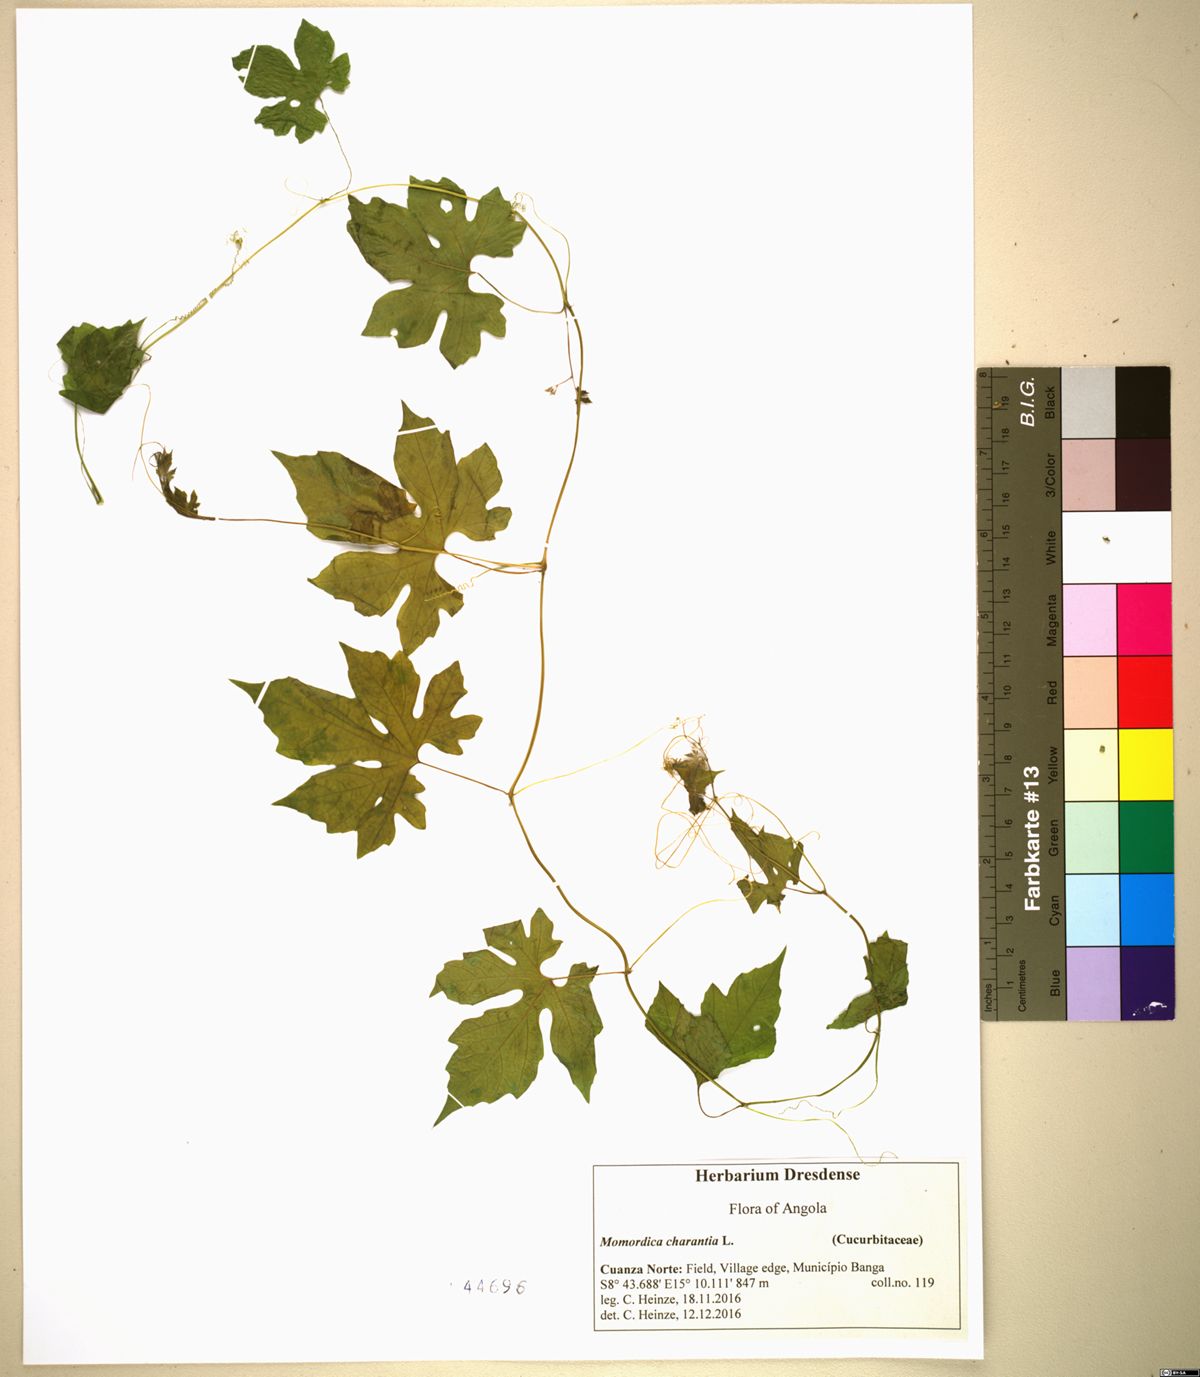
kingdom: Plantae
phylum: Tracheophyta
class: Magnoliopsida
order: Cucurbitales
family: Cucurbitaceae
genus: Momordica
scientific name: Momordica charantia
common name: Balsampear
